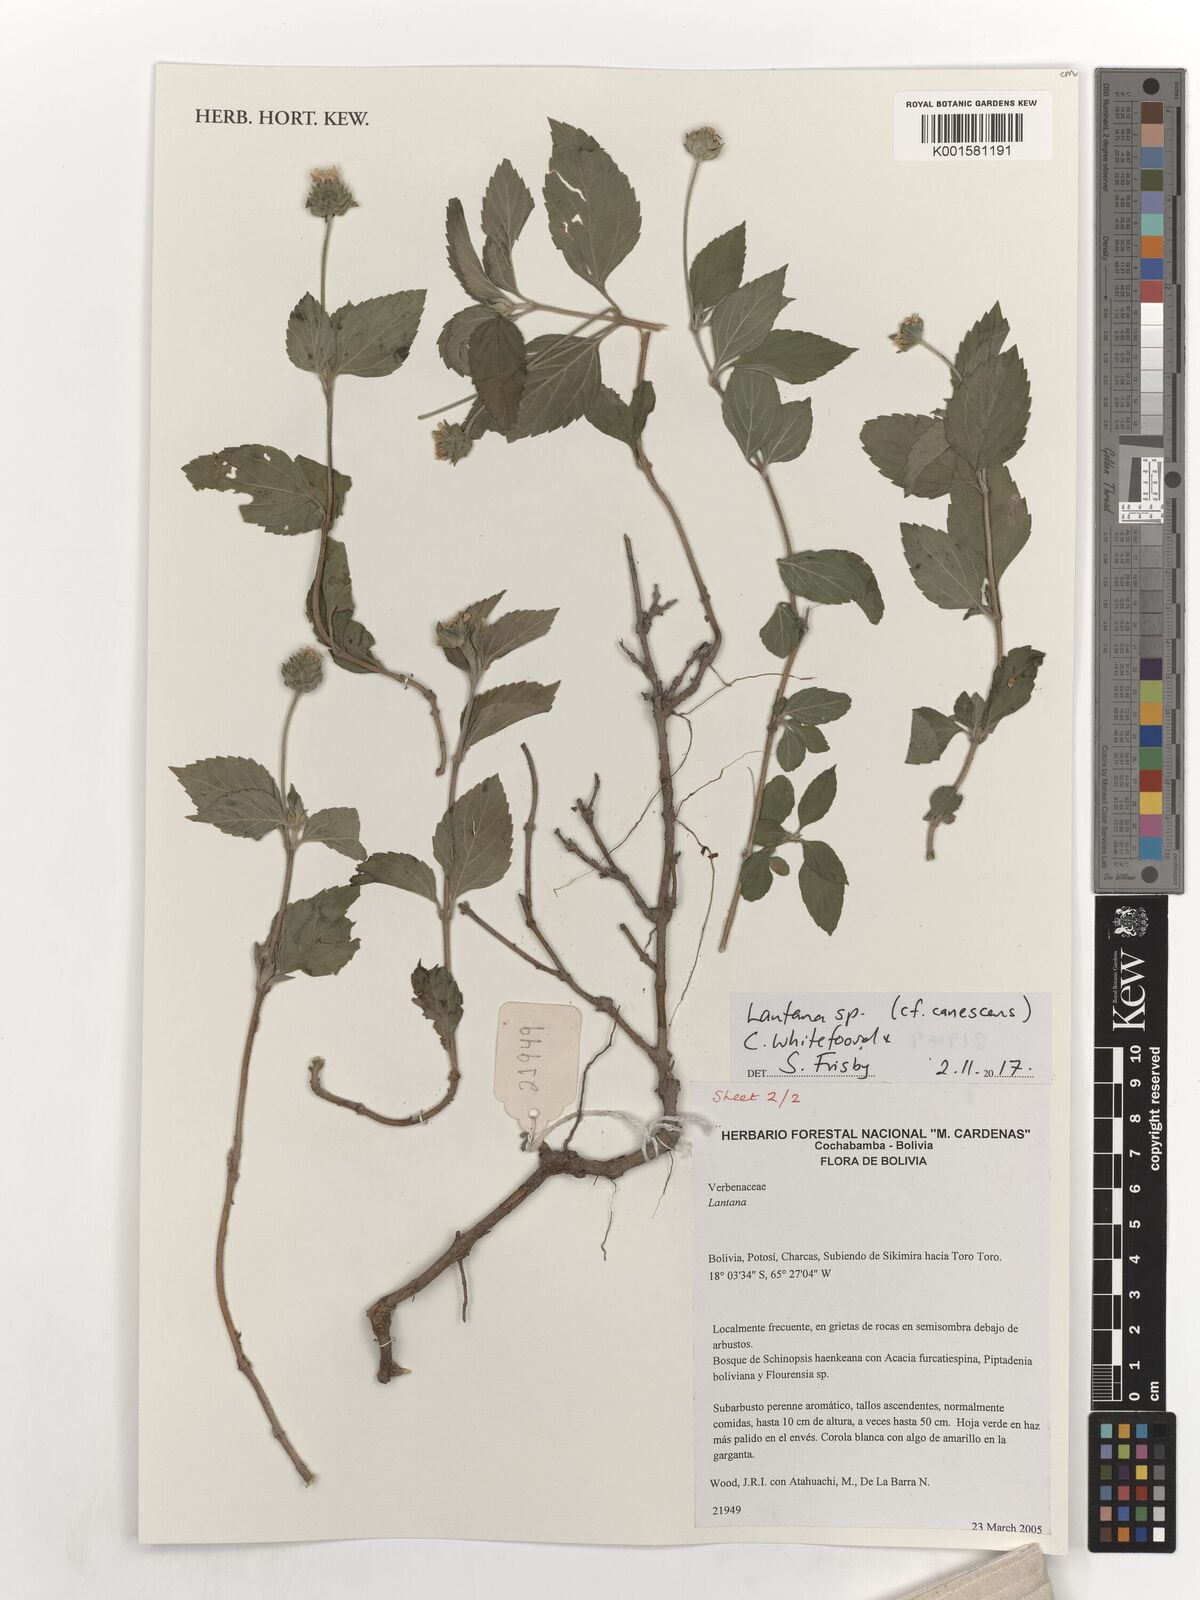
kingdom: Plantae
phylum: Tracheophyta
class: Magnoliopsida
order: Lamiales
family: Verbenaceae
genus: Lantana
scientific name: Lantana canescens
